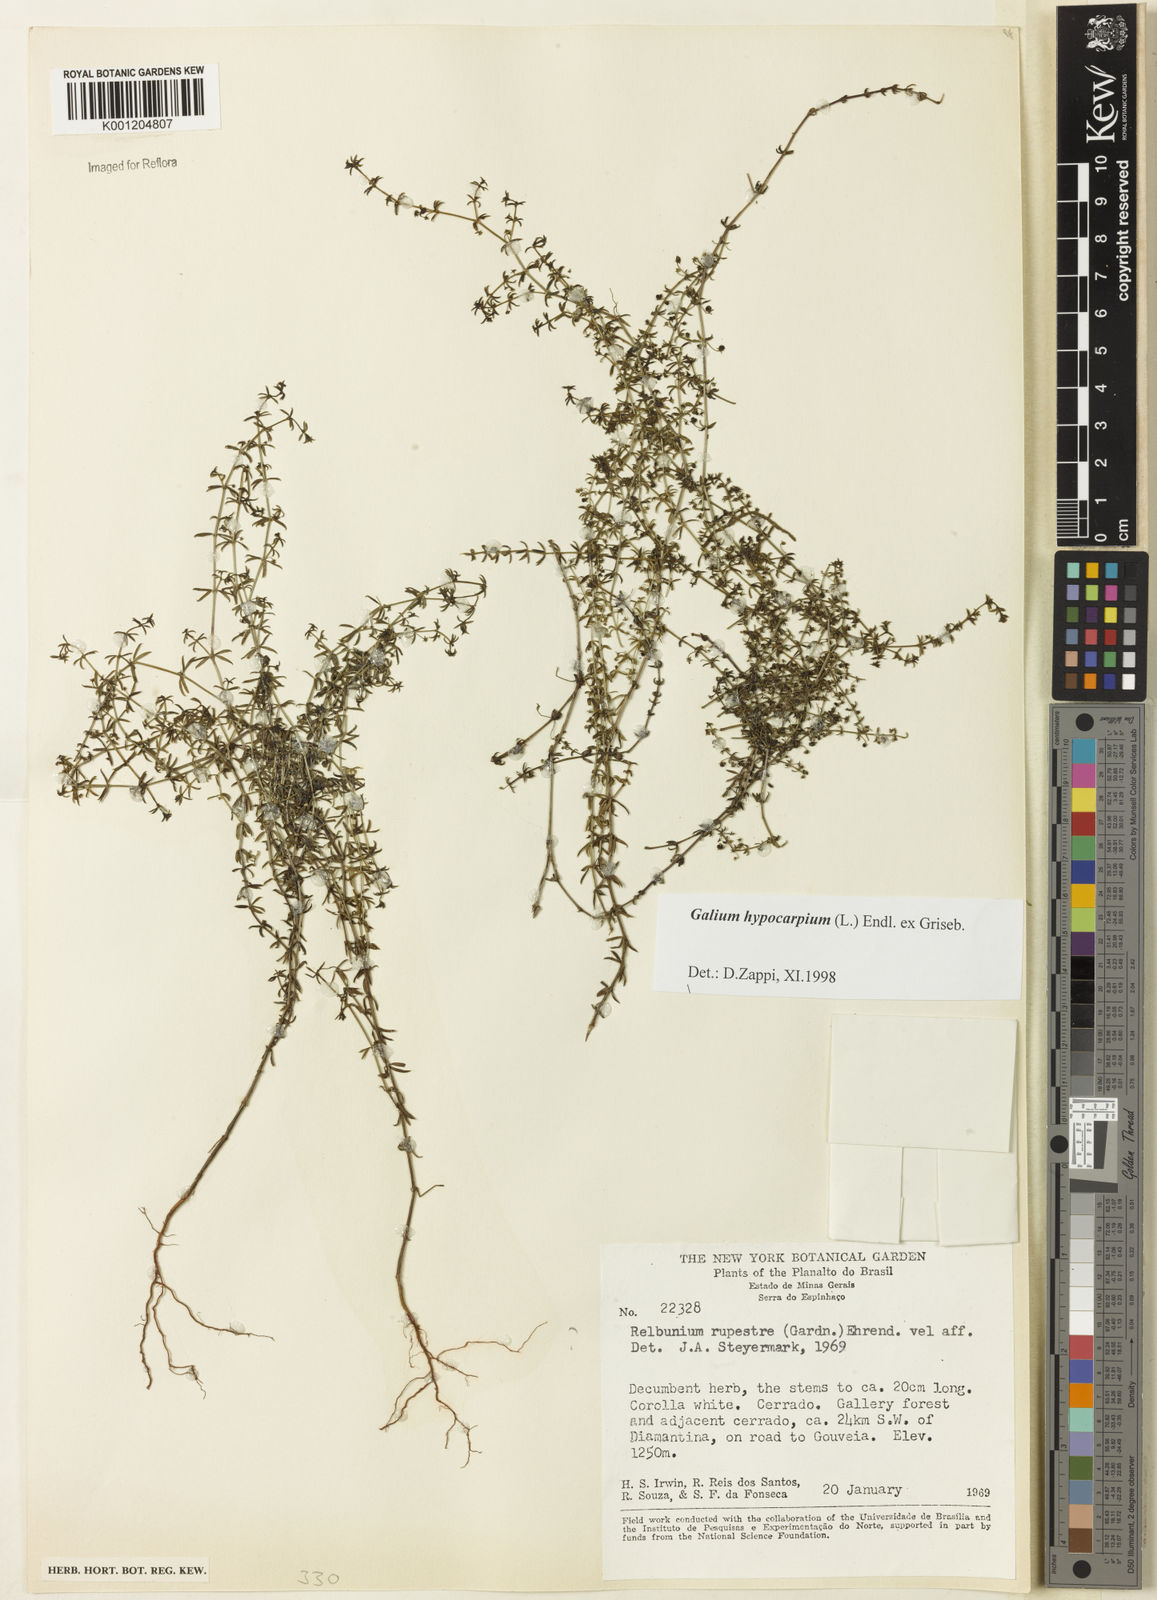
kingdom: Plantae
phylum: Tracheophyta
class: Magnoliopsida
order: Gentianales
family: Rubiaceae
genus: Galium
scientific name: Galium hypocarpium
